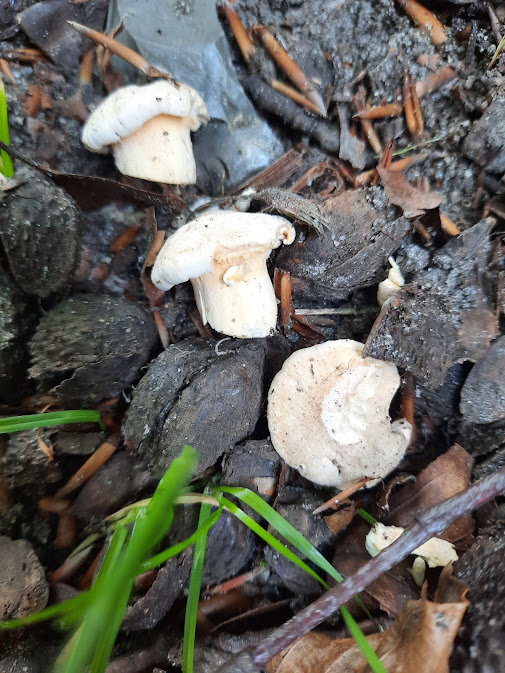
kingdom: Fungi
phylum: Basidiomycota
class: Agaricomycetes
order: Cantharellales
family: Hydnaceae
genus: Cantharellus
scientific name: Cantharellus pallens
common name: bleg kantarel
